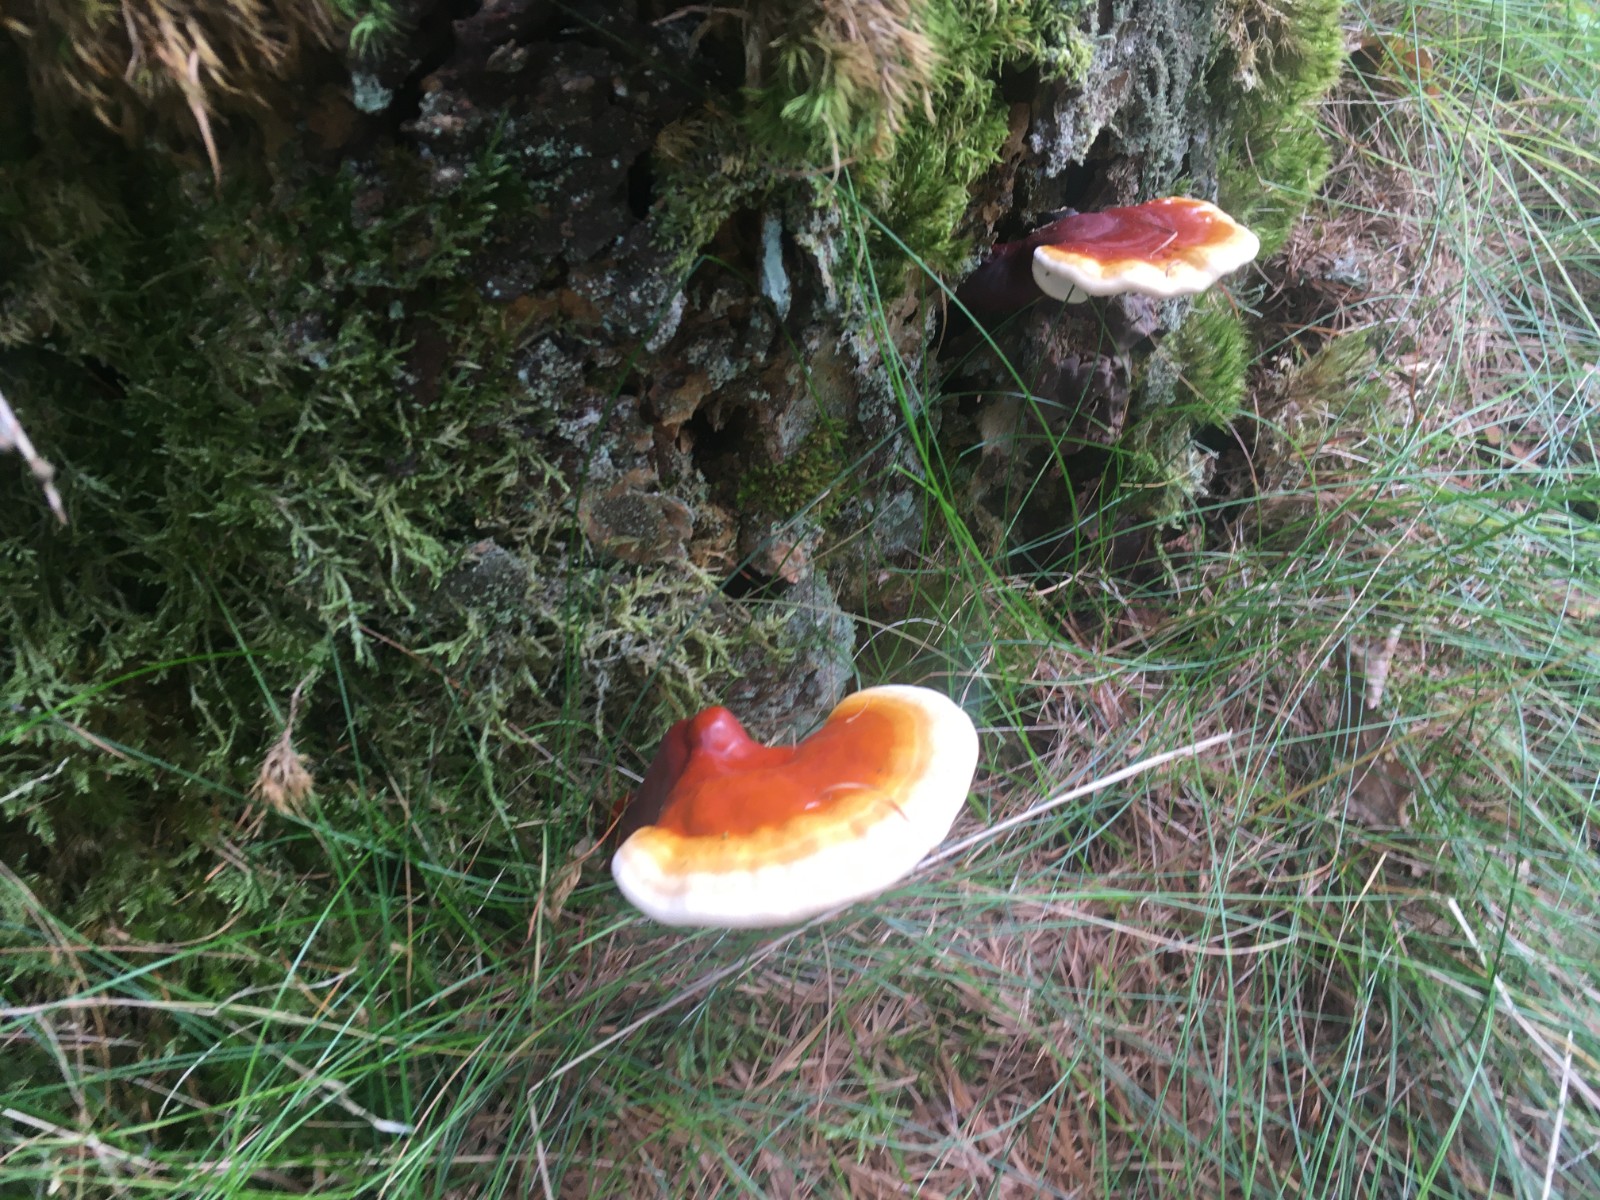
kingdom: Fungi
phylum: Basidiomycota
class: Agaricomycetes
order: Polyporales
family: Polyporaceae
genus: Ganoderma
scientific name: Ganoderma lucidum
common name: skinnende lakporesvamp
